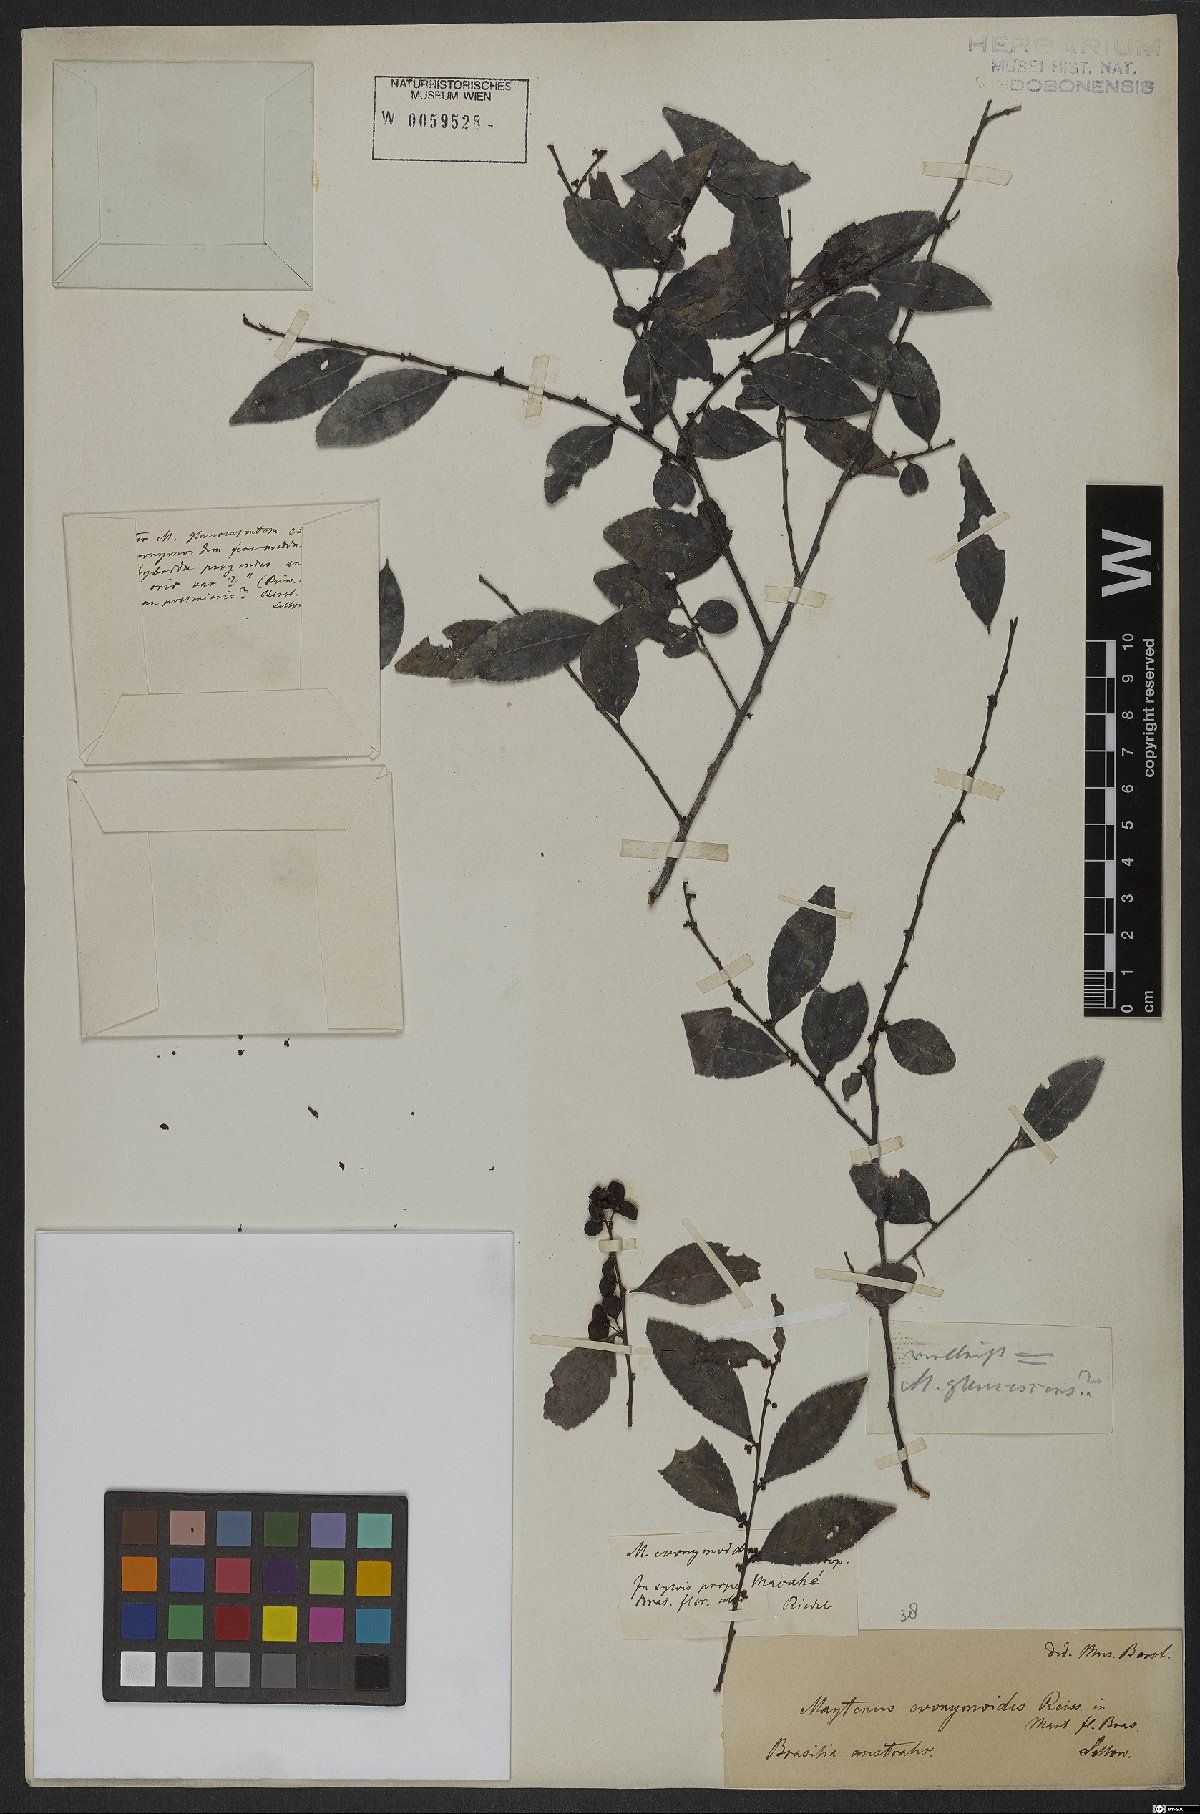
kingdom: Plantae
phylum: Tracheophyta
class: Magnoliopsida
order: Celastrales
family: Celastraceae
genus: Monteverdia
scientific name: Monteverdia evonymoides
